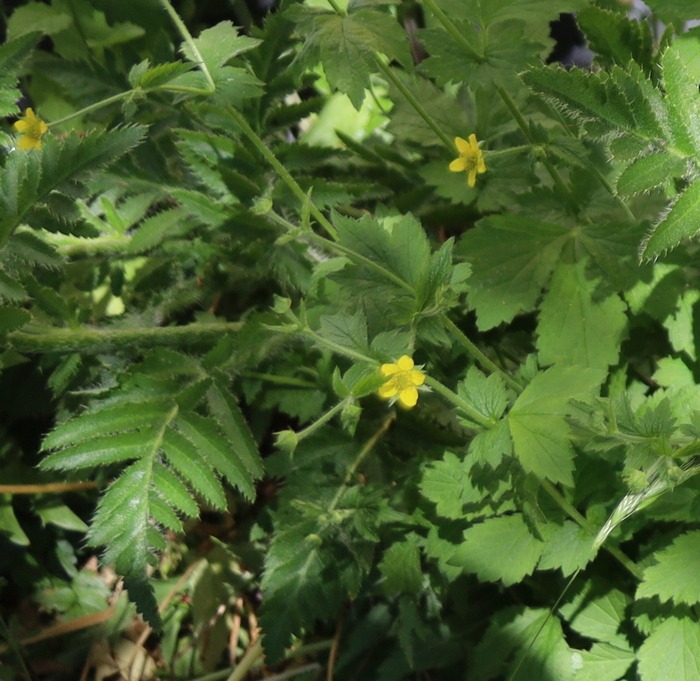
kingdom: Plantae
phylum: Tracheophyta
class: Magnoliopsida
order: Rosales
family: Rosaceae
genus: Geum
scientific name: Geum urbanum
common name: Feber-nellikerod
